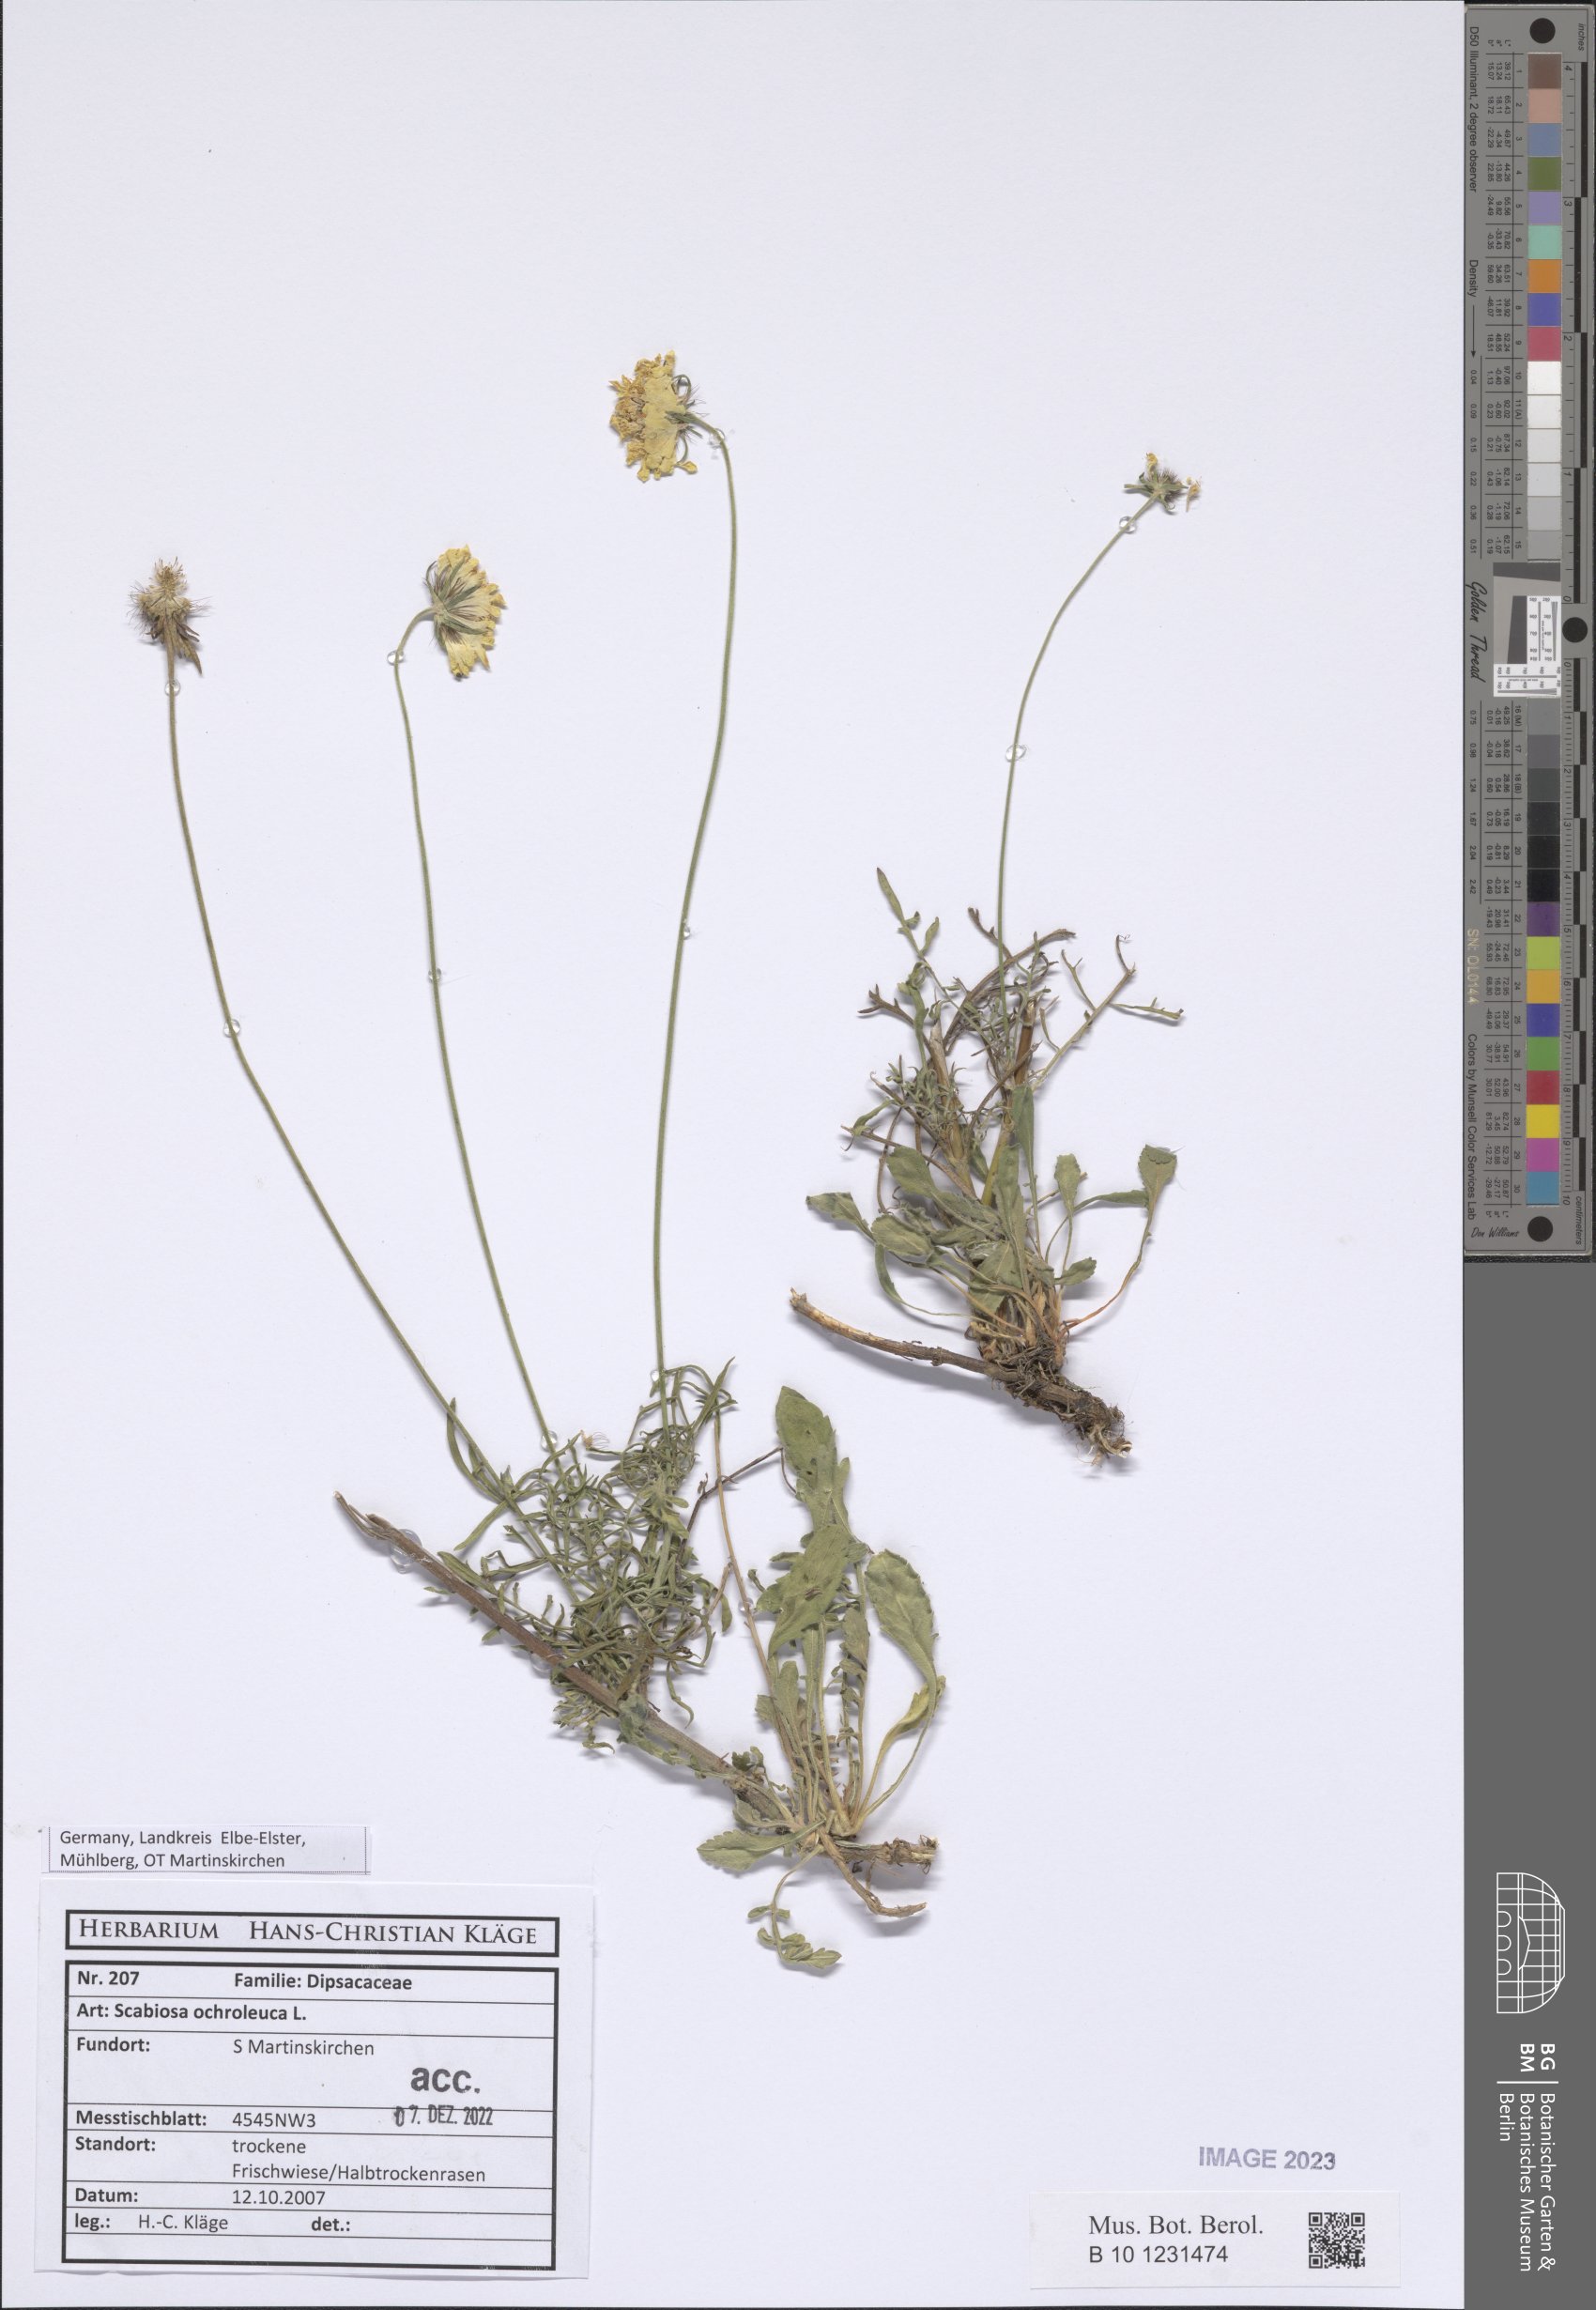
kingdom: Plantae
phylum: Tracheophyta
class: Magnoliopsida
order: Dipsacales
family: Caprifoliaceae
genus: Scabiosa
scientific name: Scabiosa ochroleuca
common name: Cream pincushions
